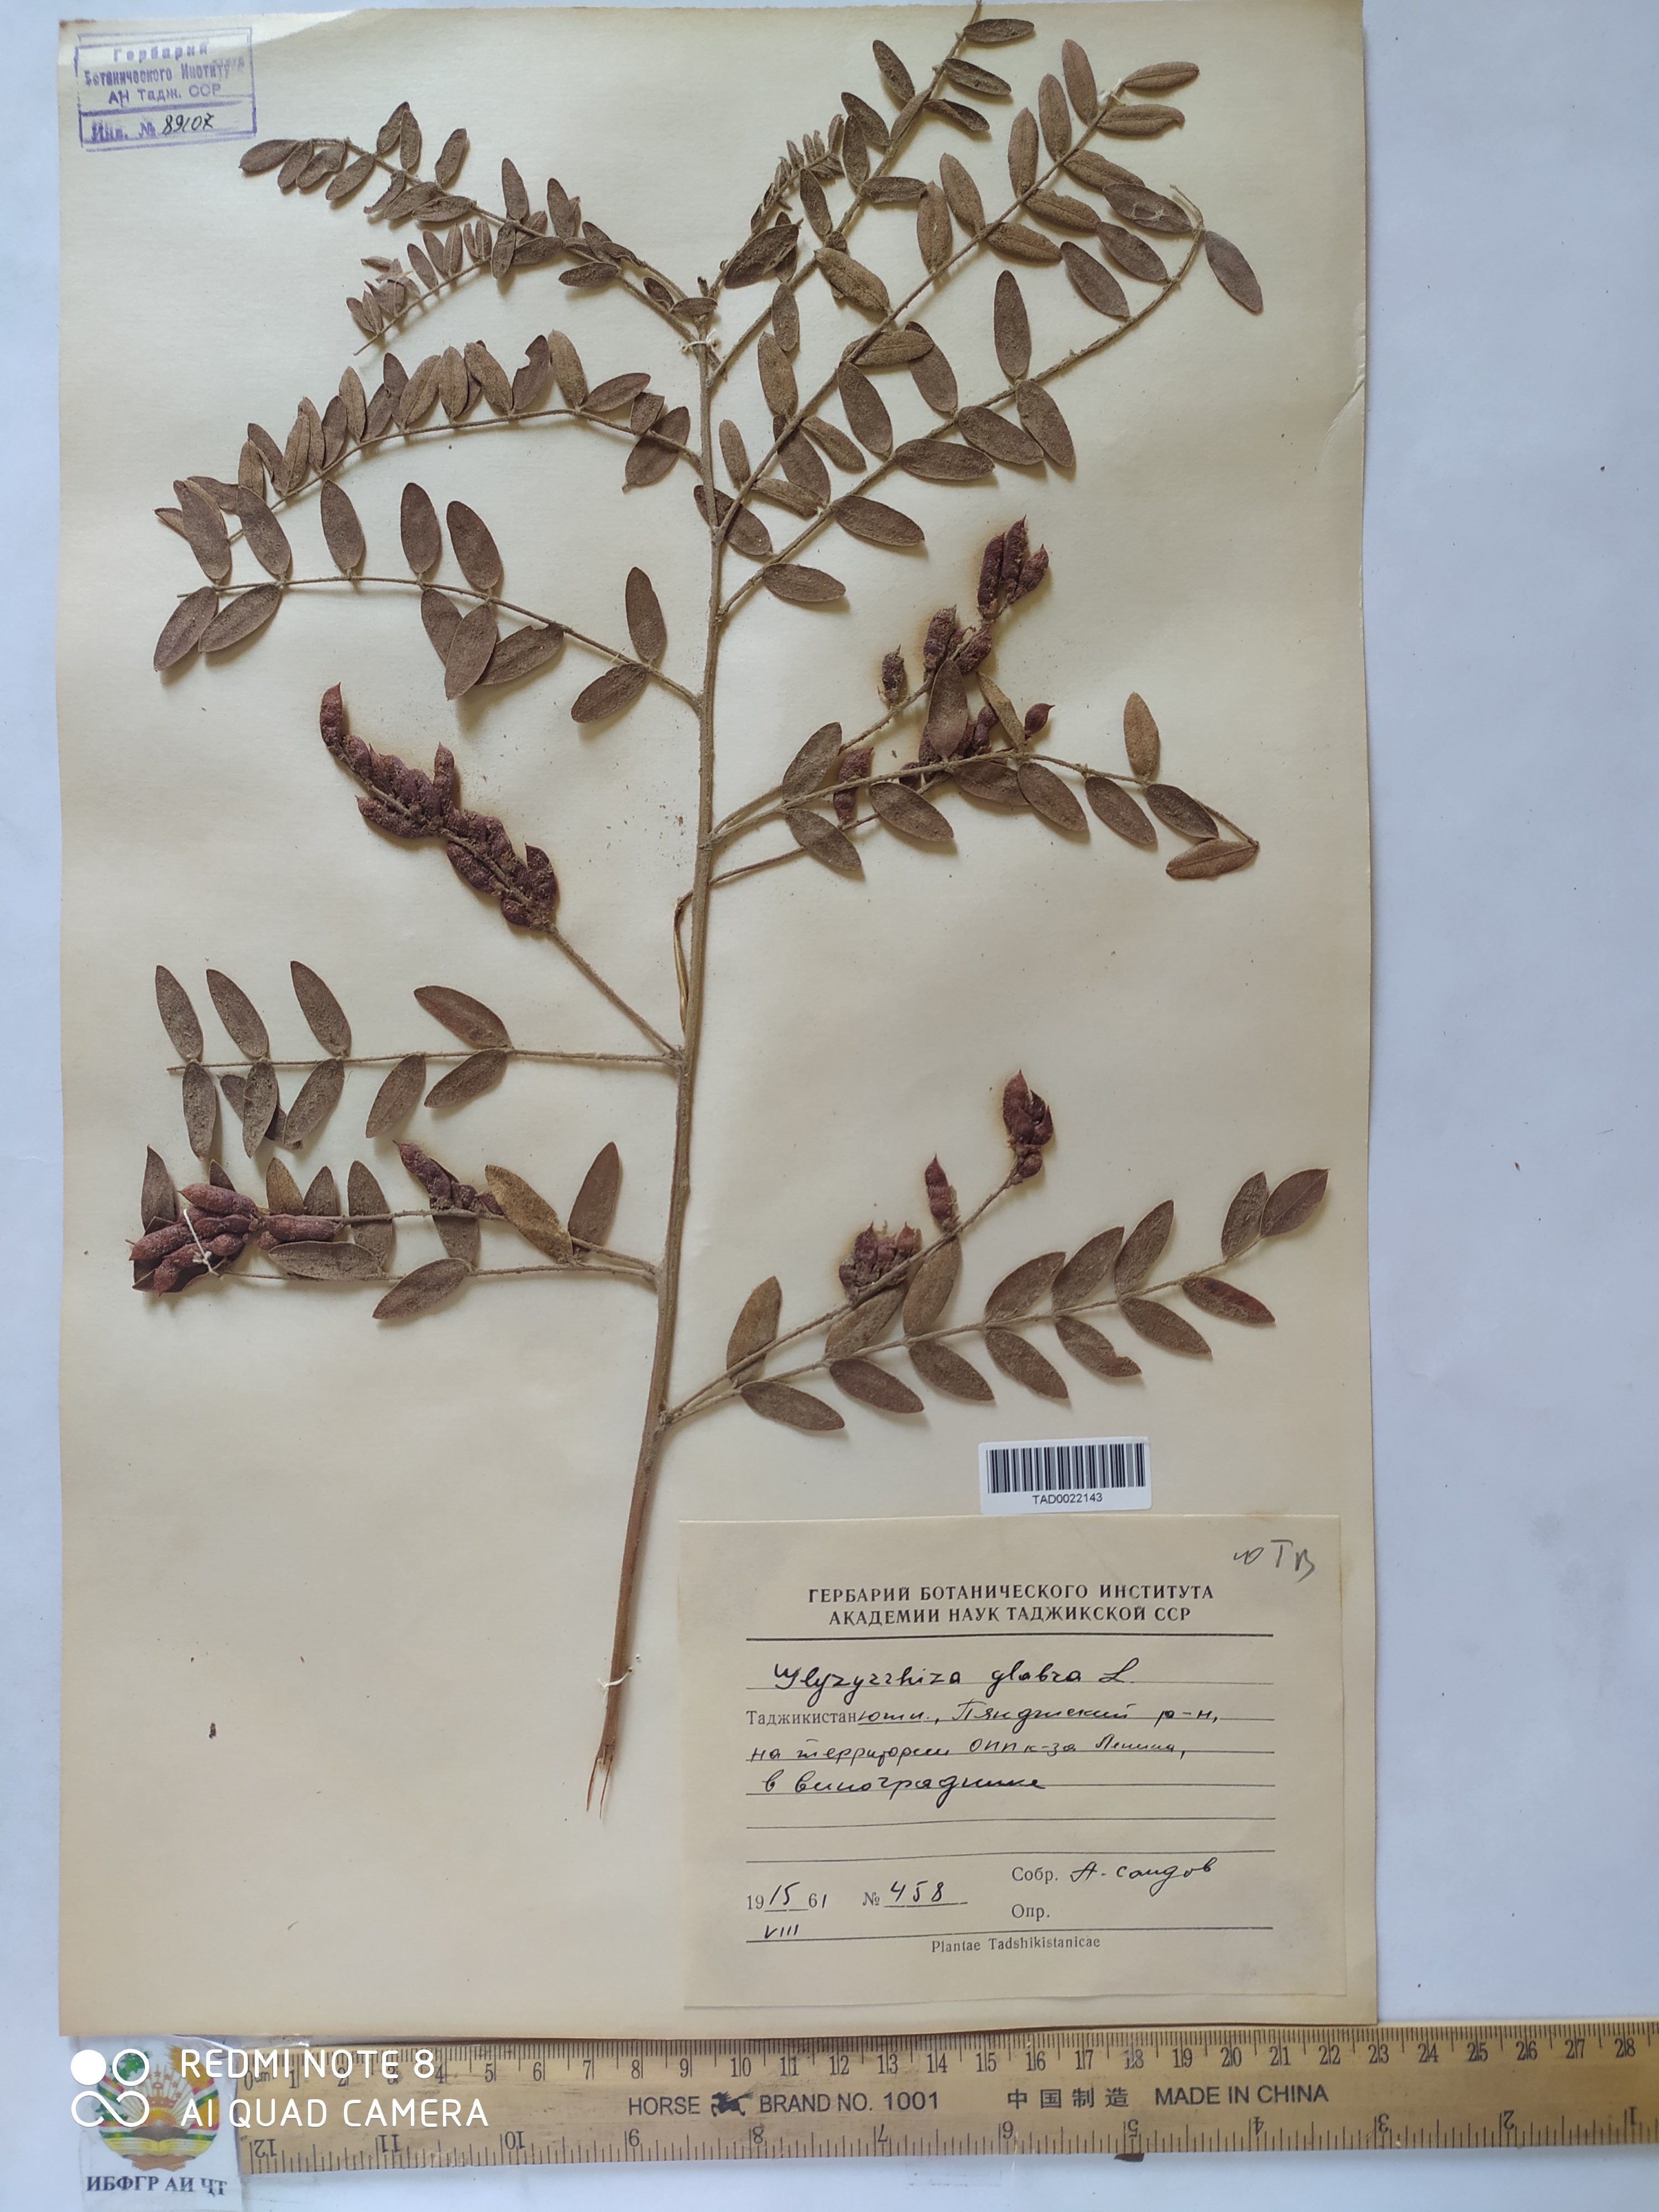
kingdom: Plantae
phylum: Tracheophyta
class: Magnoliopsida
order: Fabales
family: Fabaceae
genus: Glycyrrhiza
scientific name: Glycyrrhiza glabra
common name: Liquorice
